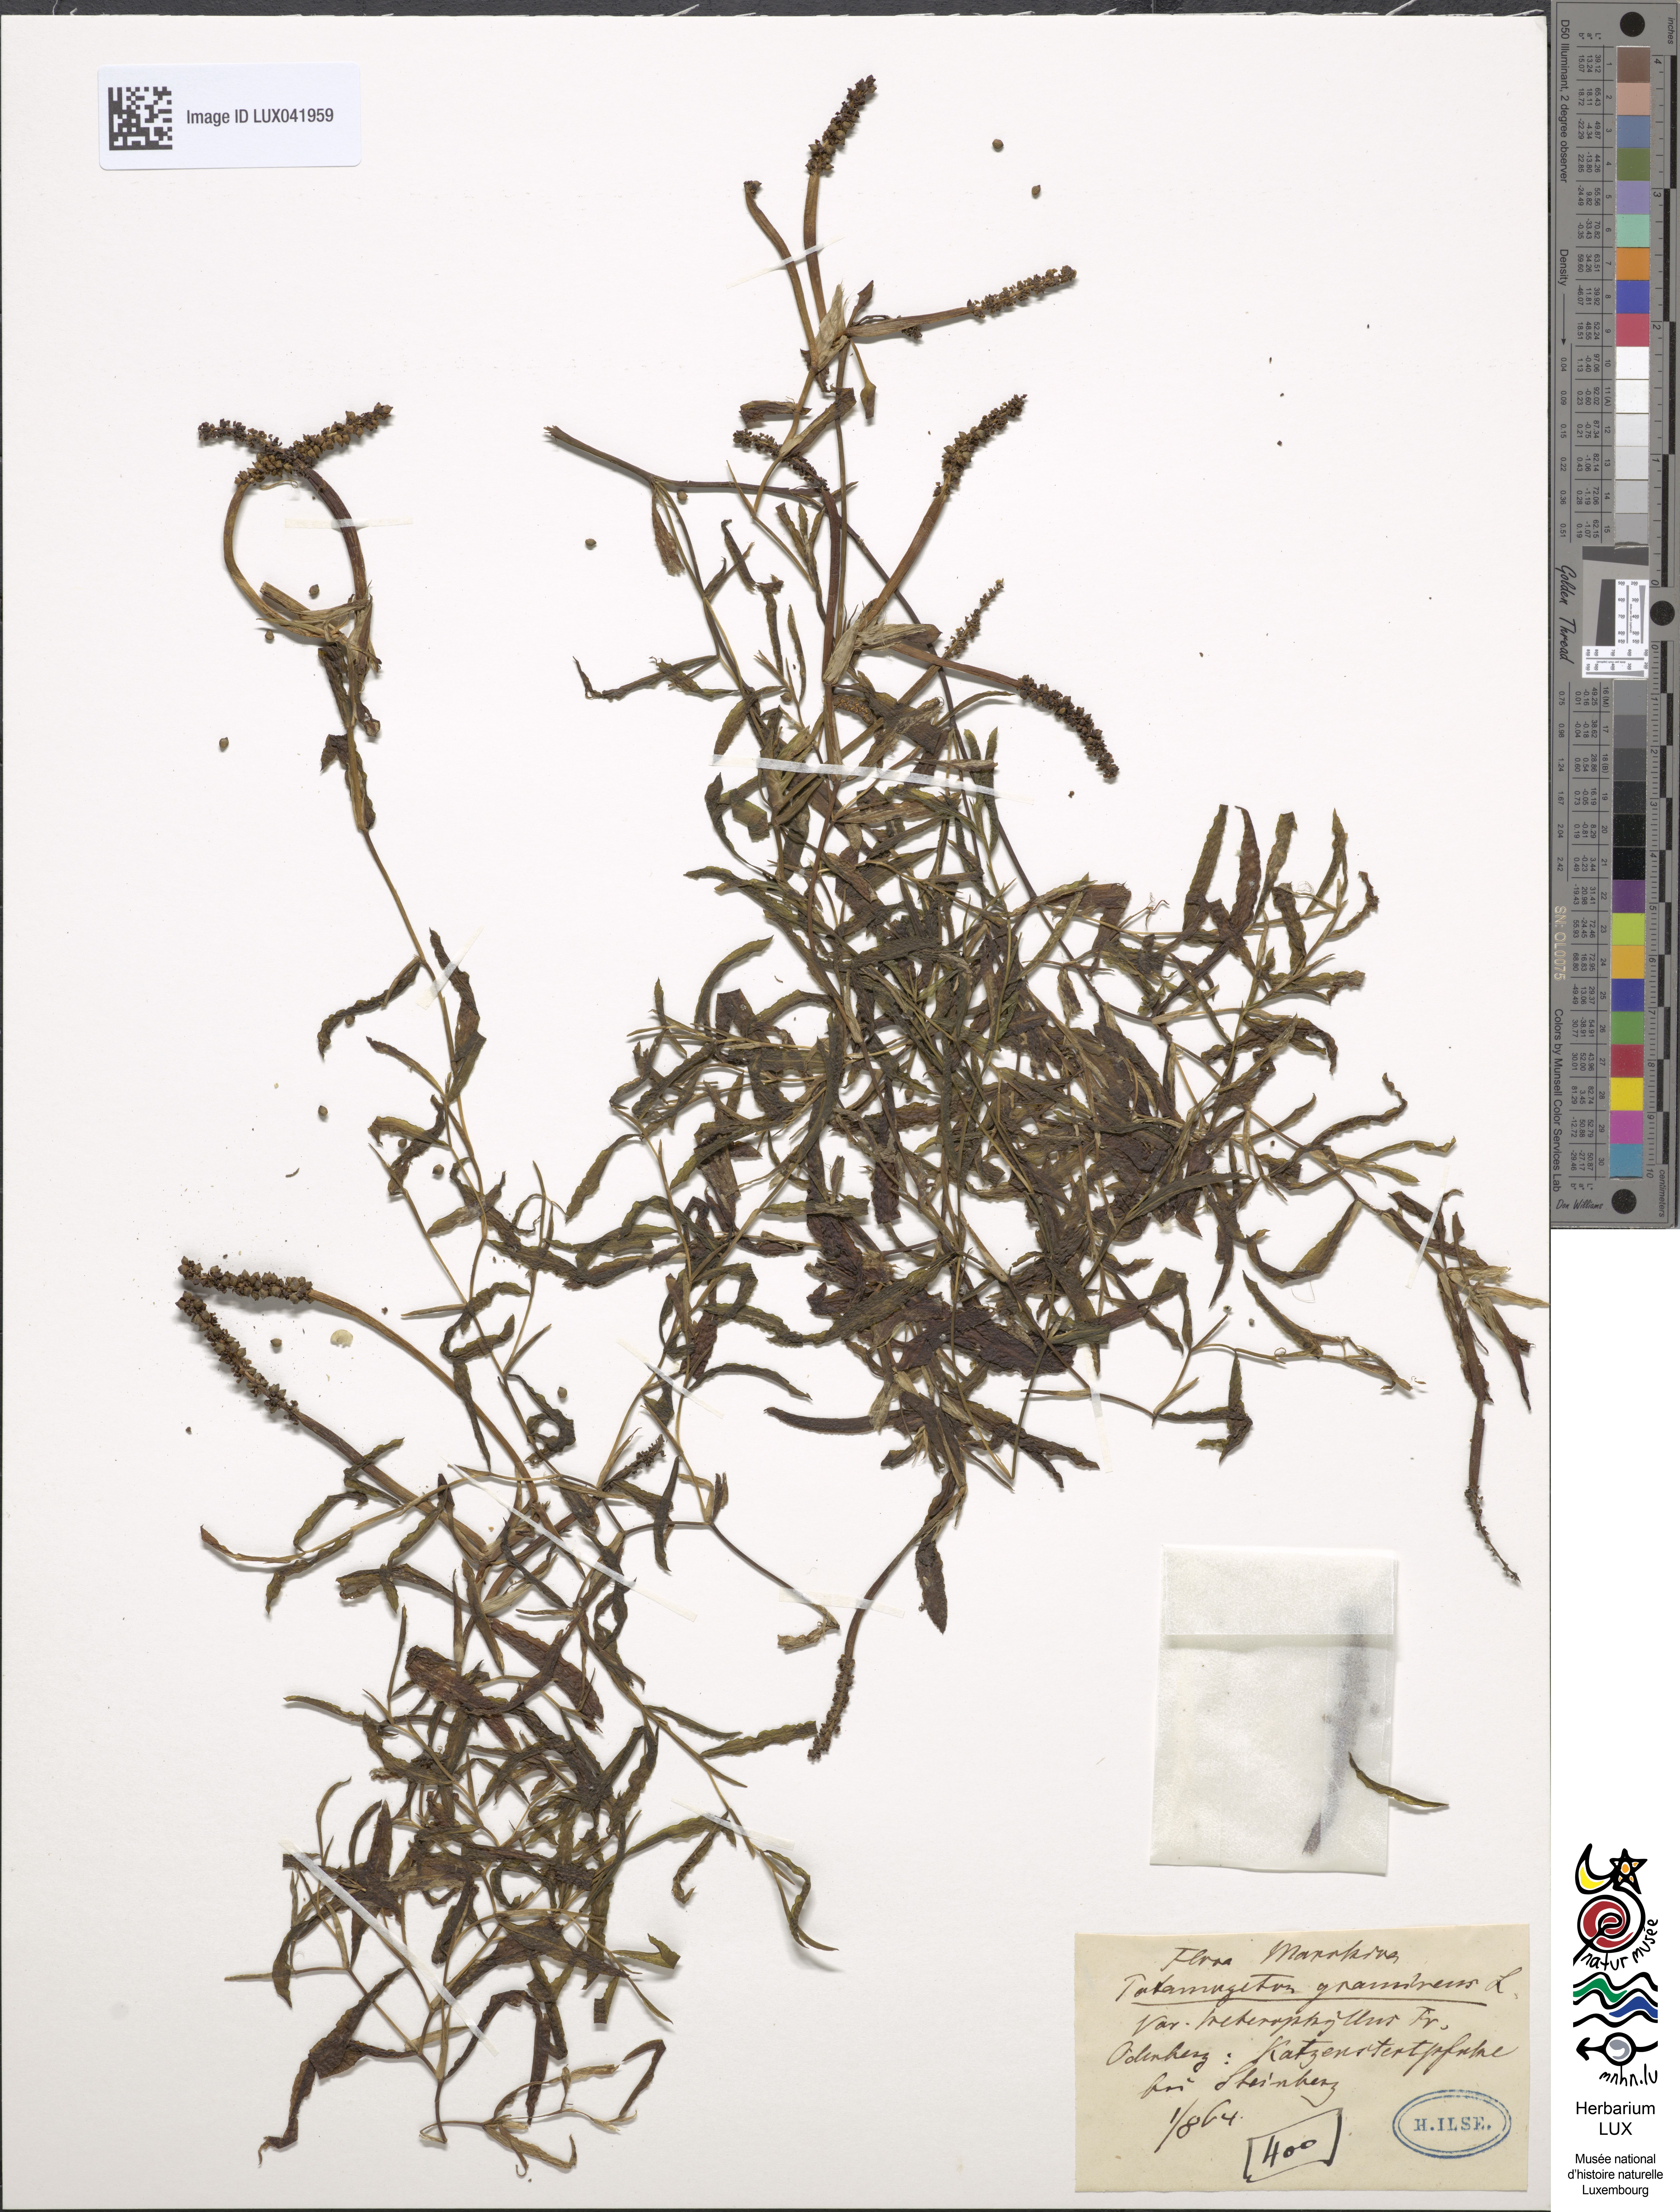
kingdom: Plantae
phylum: Tracheophyta
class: Liliopsida
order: Alismatales
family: Potamogetonaceae
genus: Potamogeton
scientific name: Potamogeton gramineus
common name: Various-leaved pondweed
